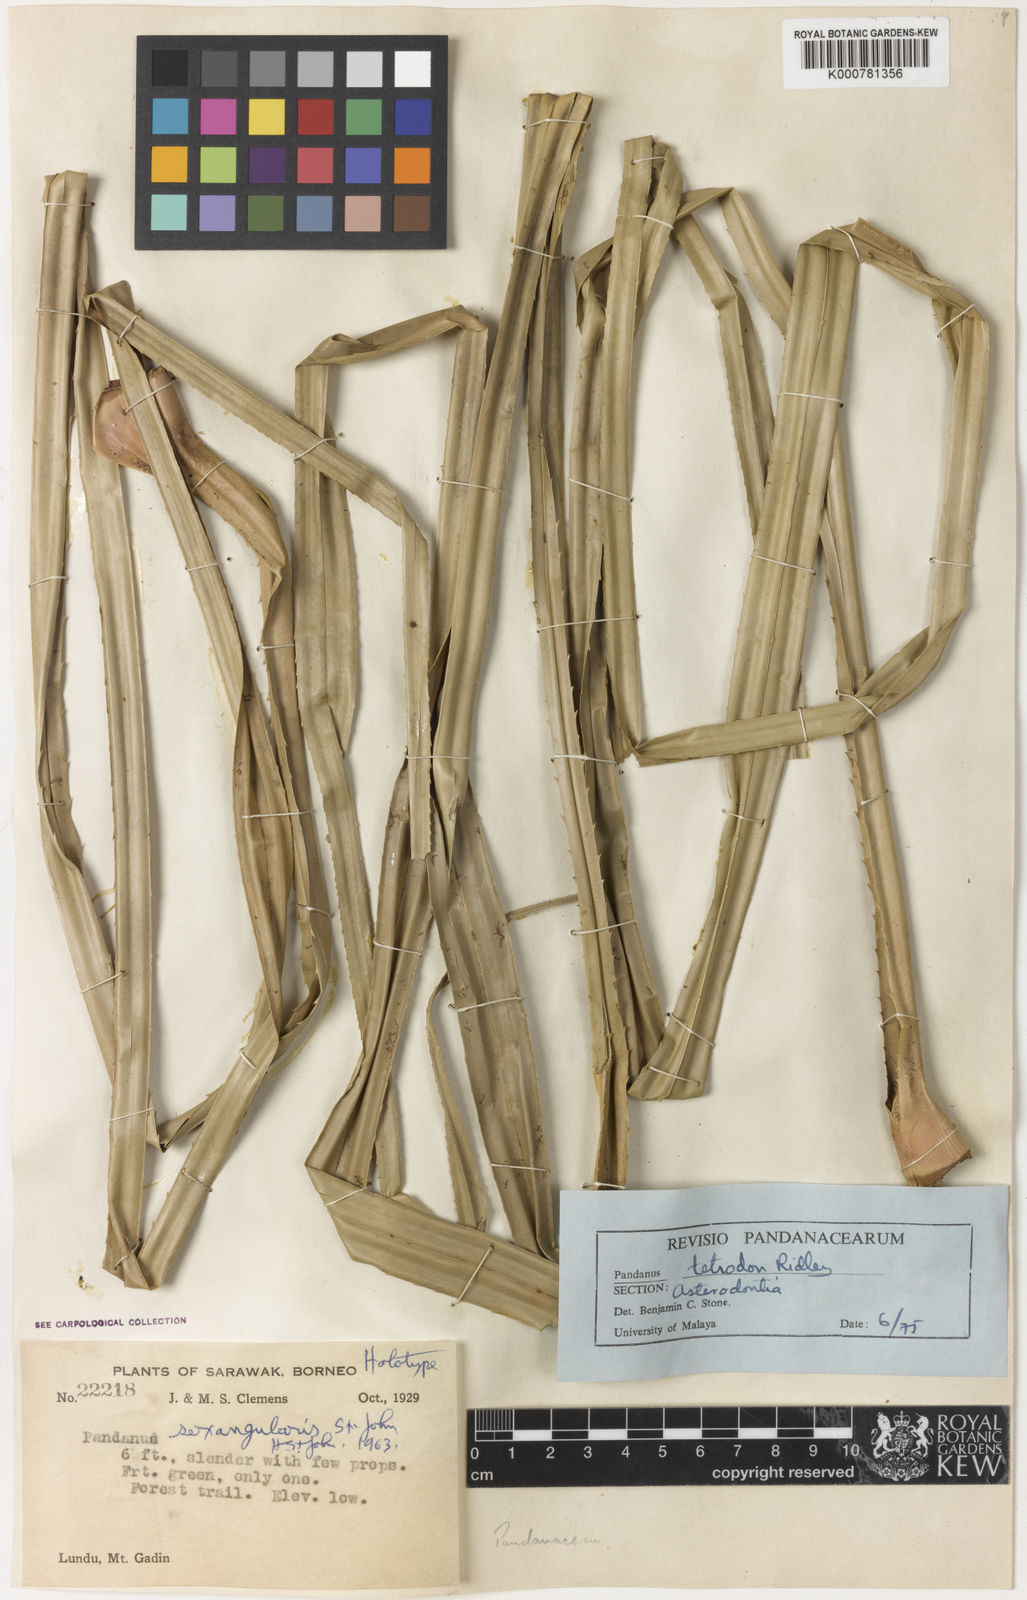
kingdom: Plantae
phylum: Tracheophyta
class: Liliopsida
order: Pandanales
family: Pandanaceae
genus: Pandanus
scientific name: Pandanus
